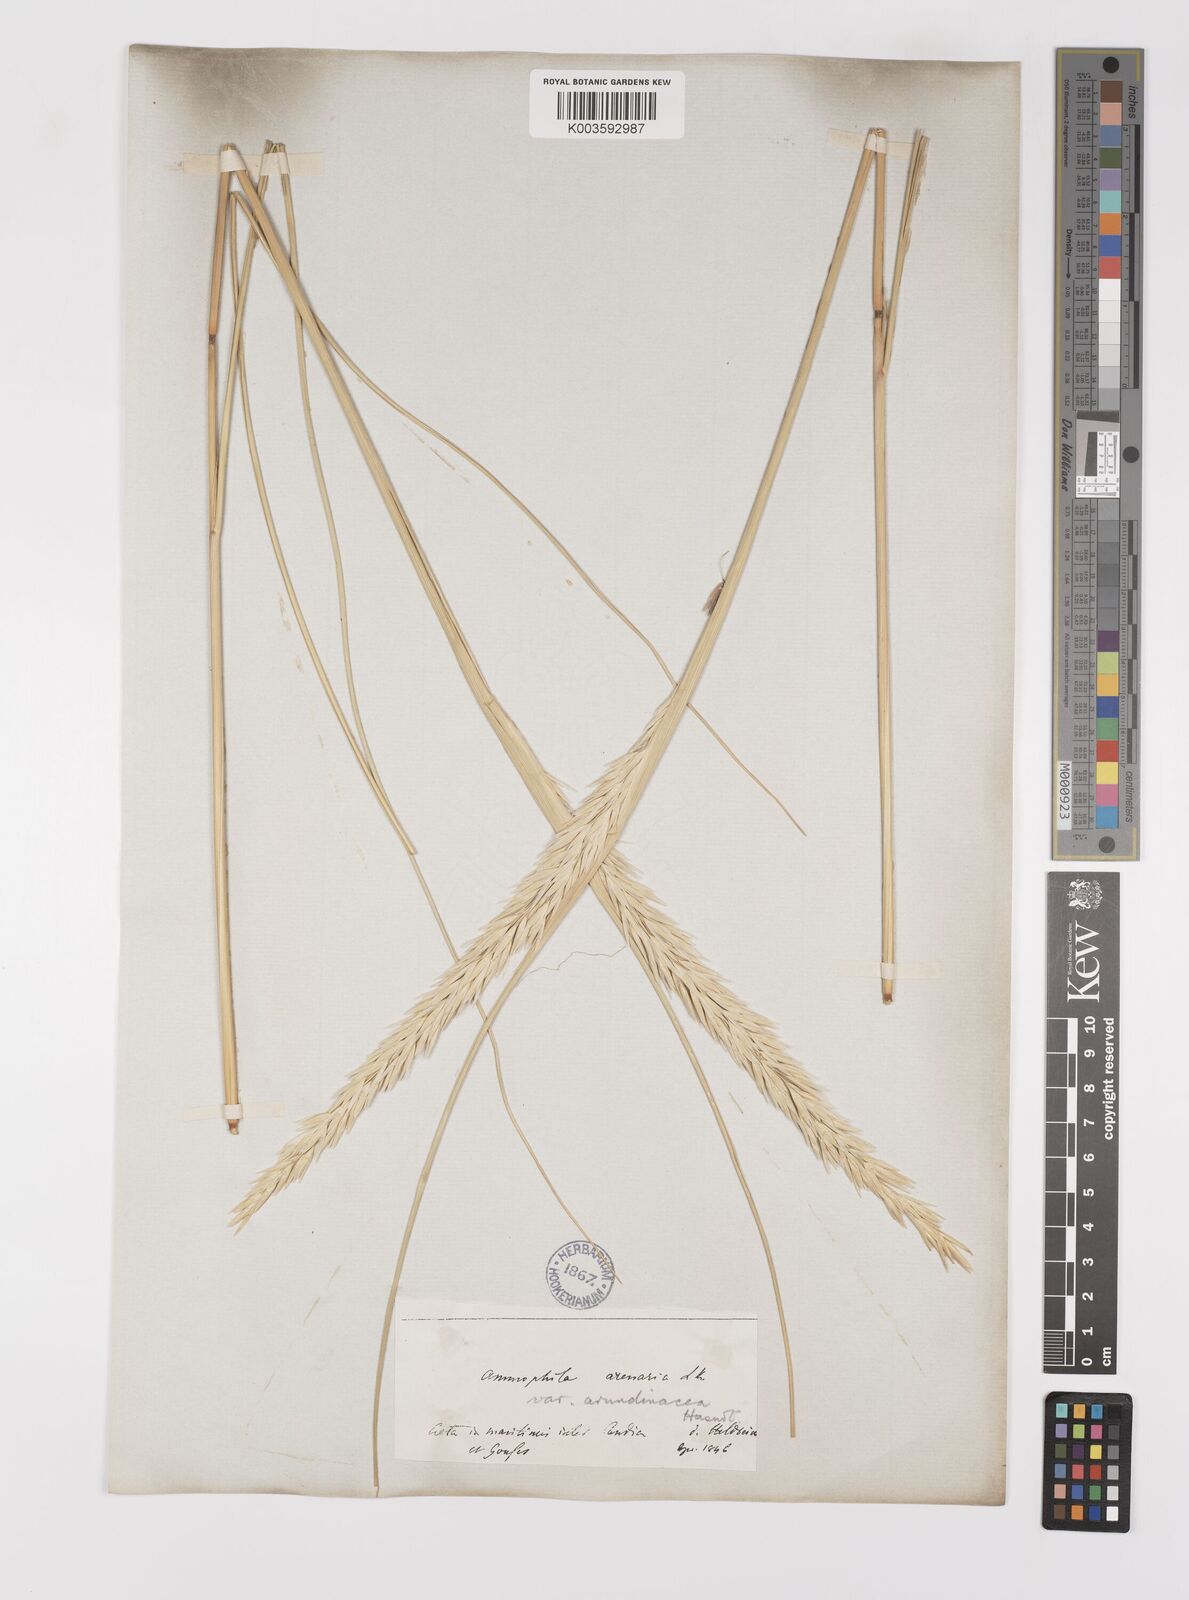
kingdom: Plantae
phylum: Tracheophyta
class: Liliopsida
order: Poales
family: Poaceae
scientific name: Poaceae
